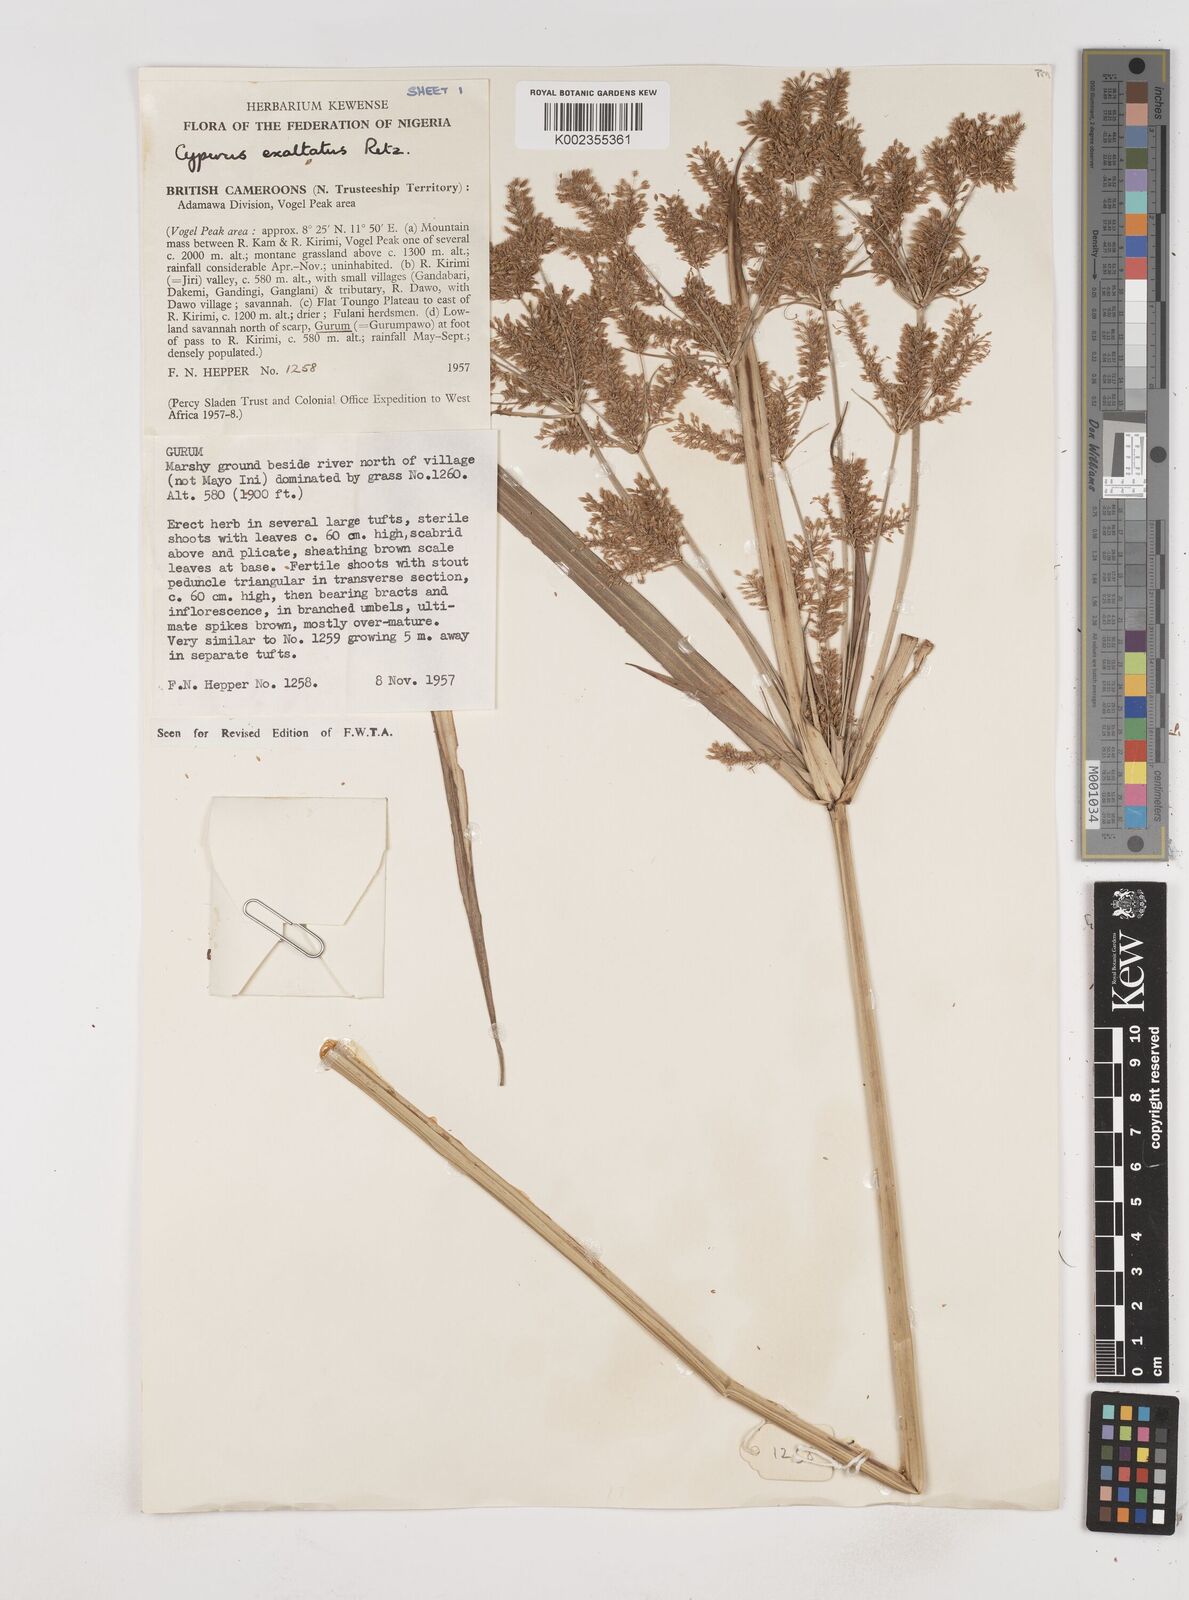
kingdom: Plantae
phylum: Tracheophyta
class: Liliopsida
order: Poales
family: Cyperaceae
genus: Cyperus
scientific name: Cyperus exaltatus
